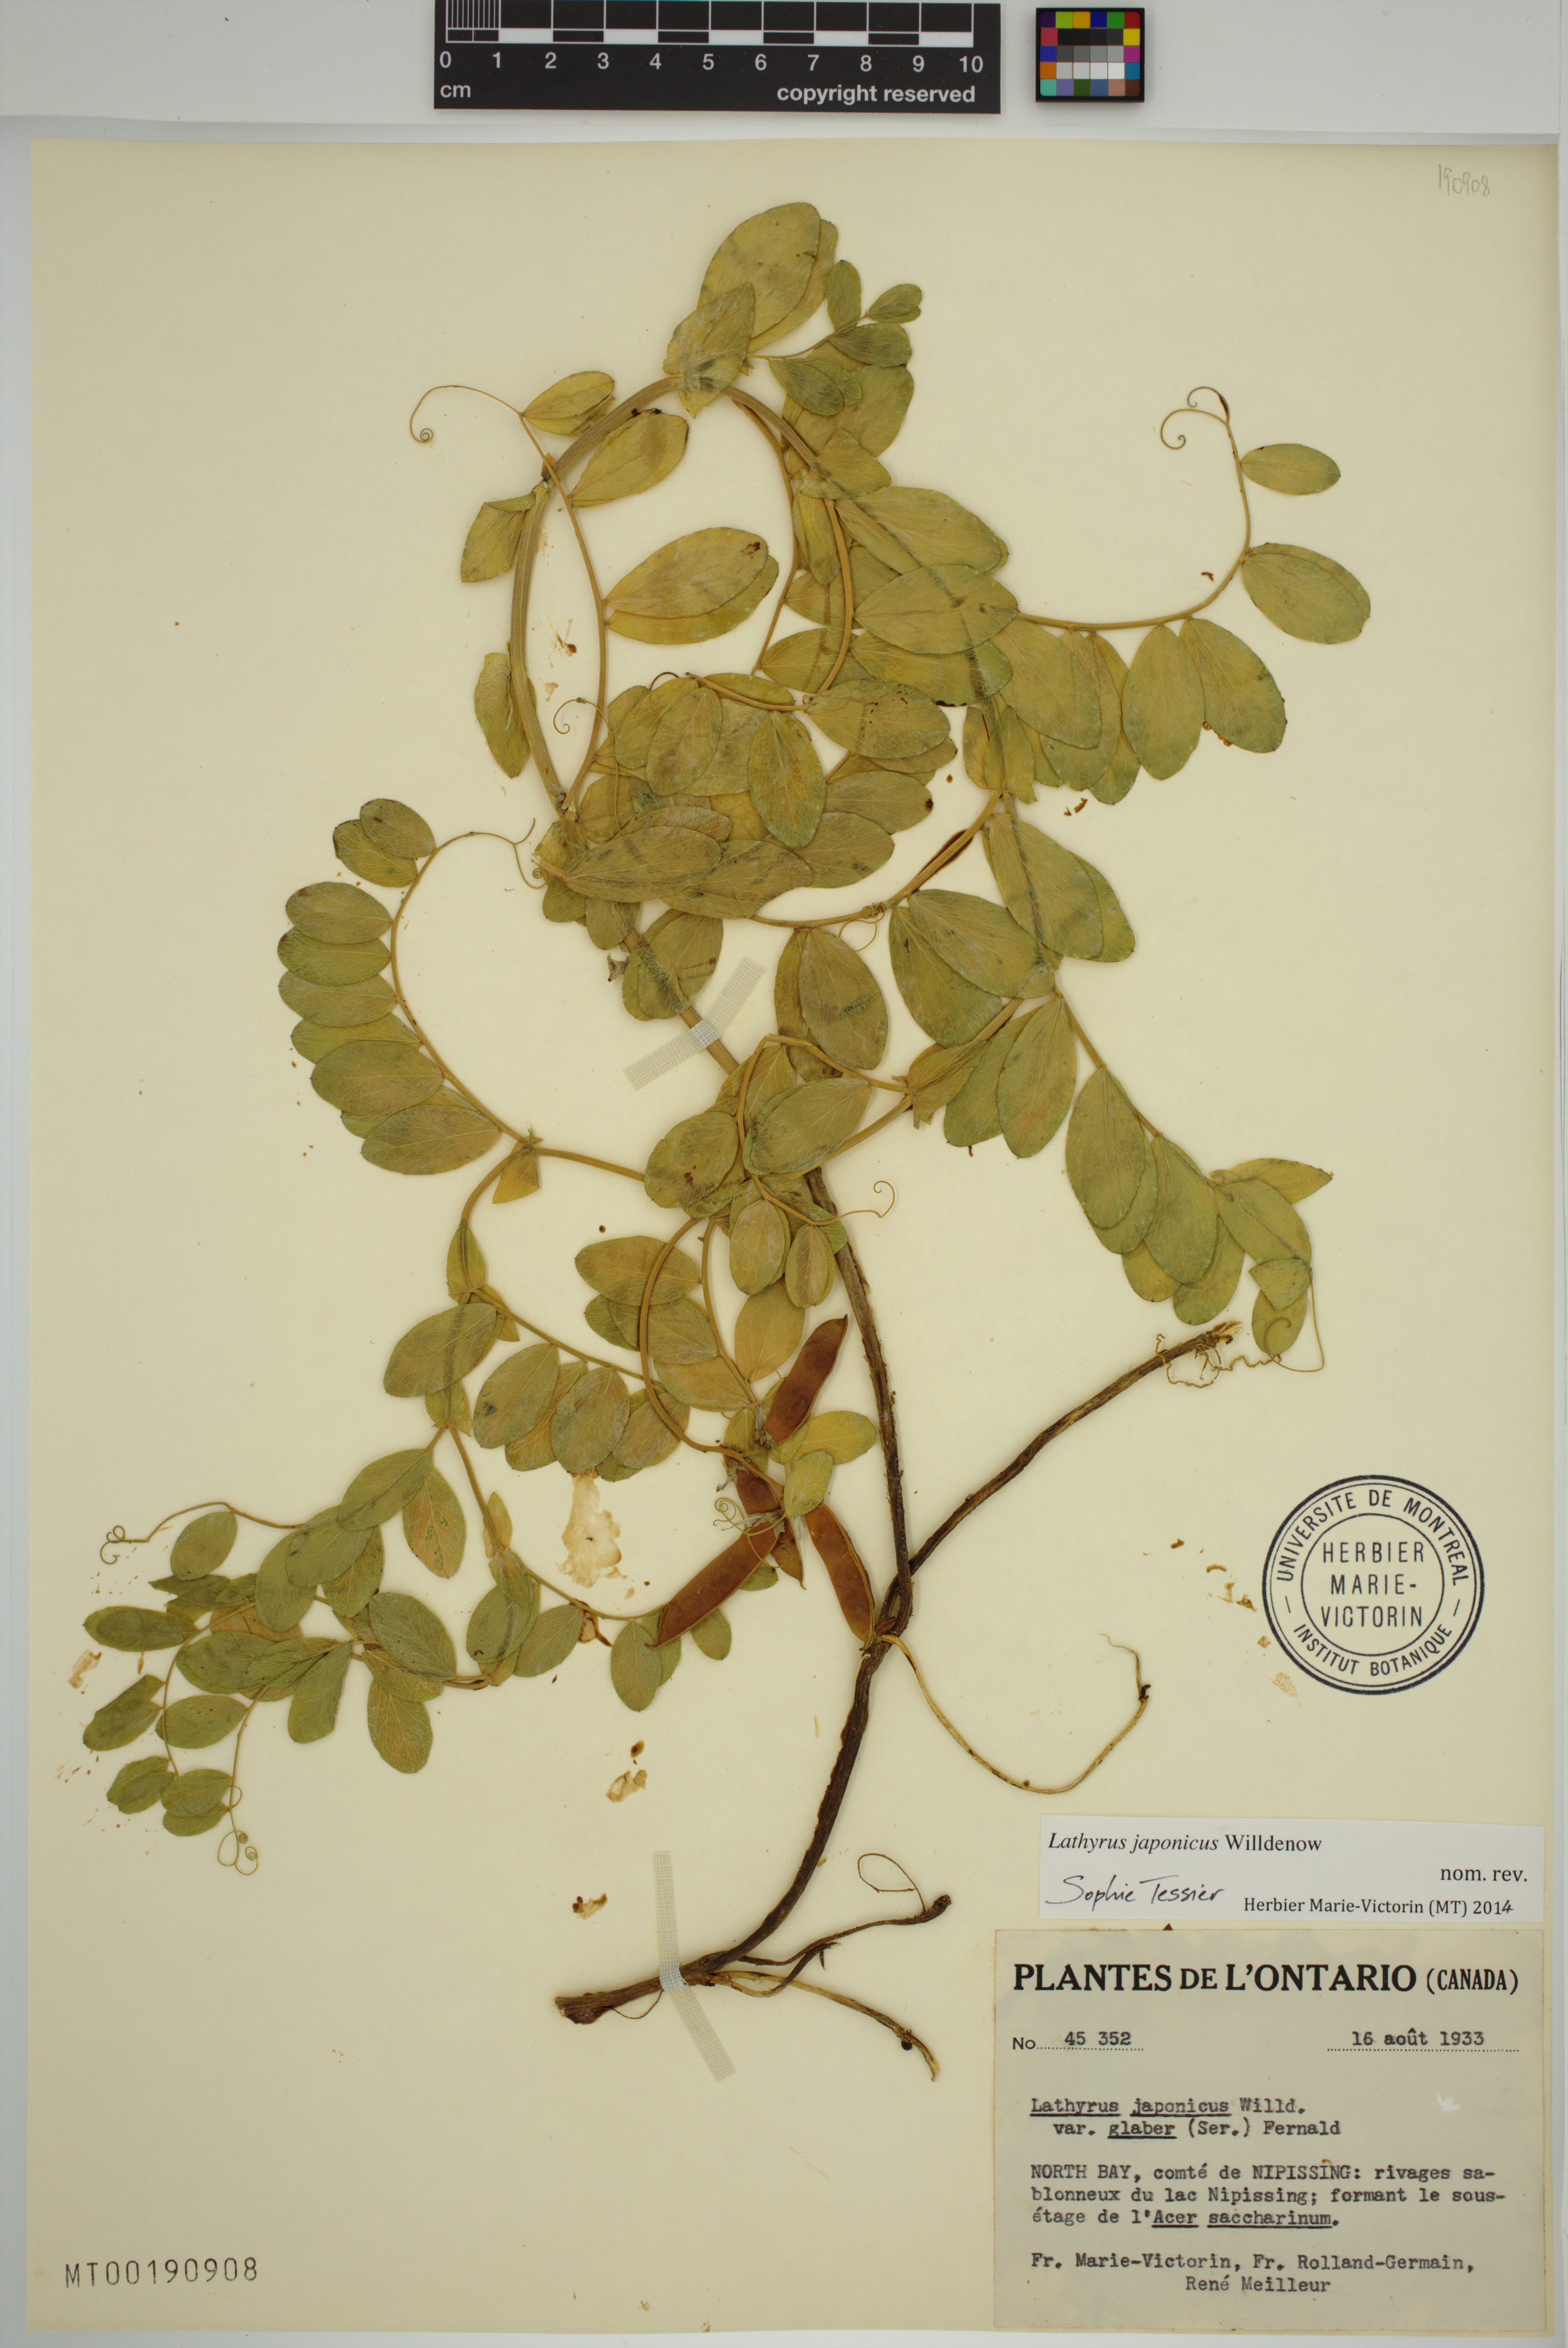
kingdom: Plantae
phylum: Tracheophyta
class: Magnoliopsida
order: Fabales
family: Fabaceae
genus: Lathyrus
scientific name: Lathyrus japonicus
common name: Sea pea
